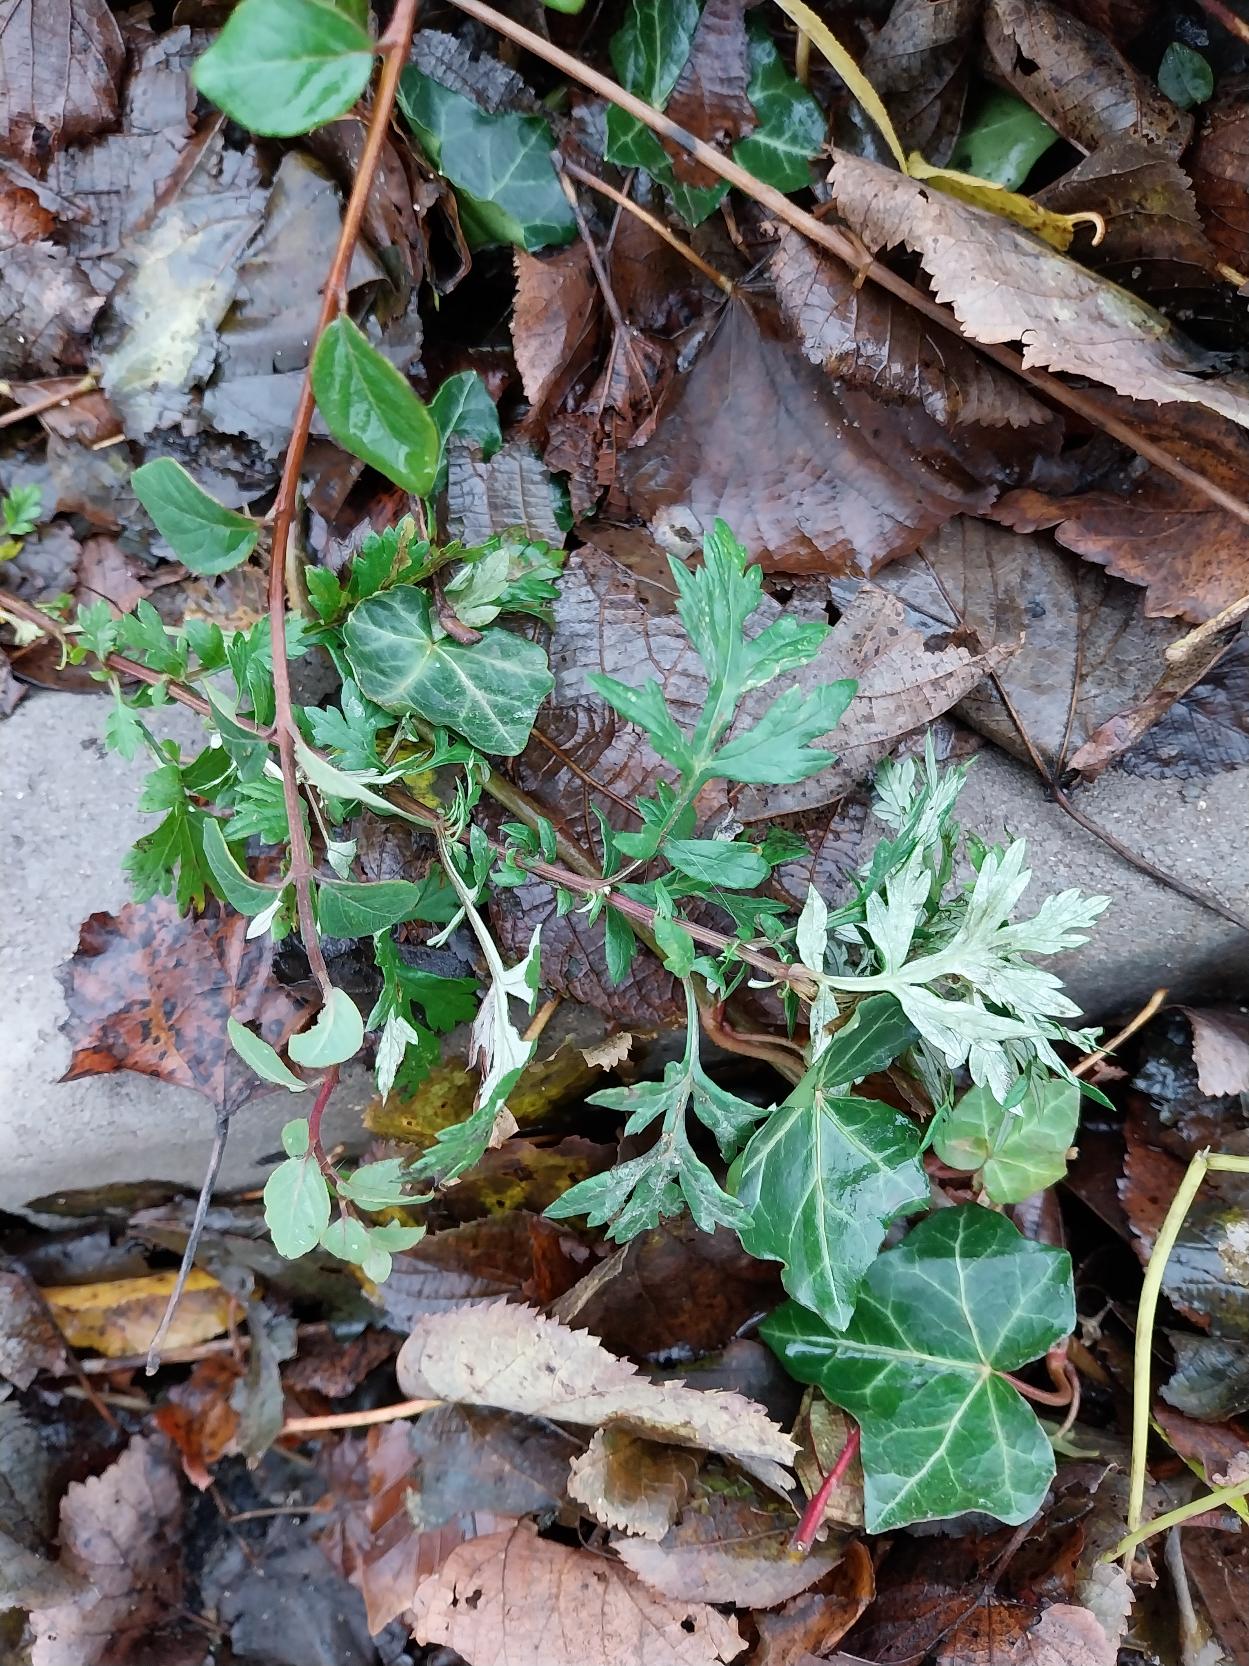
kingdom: Plantae
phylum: Tracheophyta
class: Magnoliopsida
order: Asterales
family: Asteraceae
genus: Artemisia
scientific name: Artemisia vulgaris
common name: Grå-bynke
